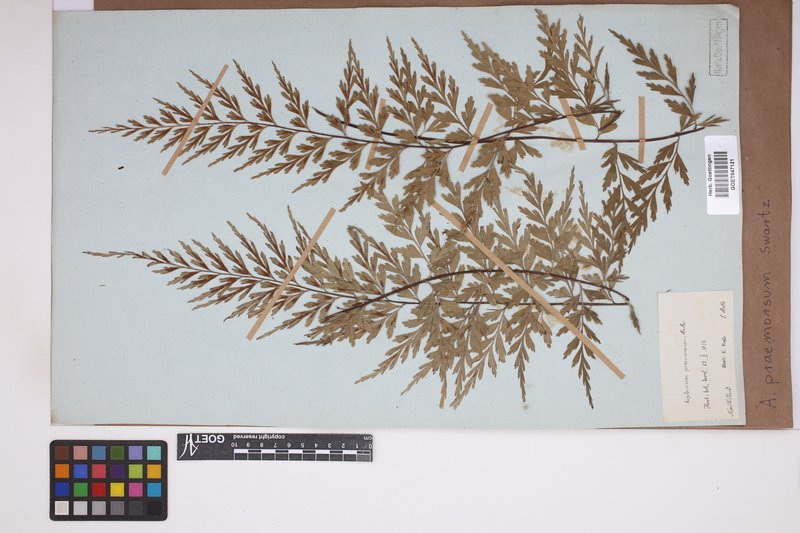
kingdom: Plantae
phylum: Tracheophyta
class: Polypodiopsida
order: Polypodiales
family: Aspleniaceae
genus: Asplenium
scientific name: Asplenium praemorsum
